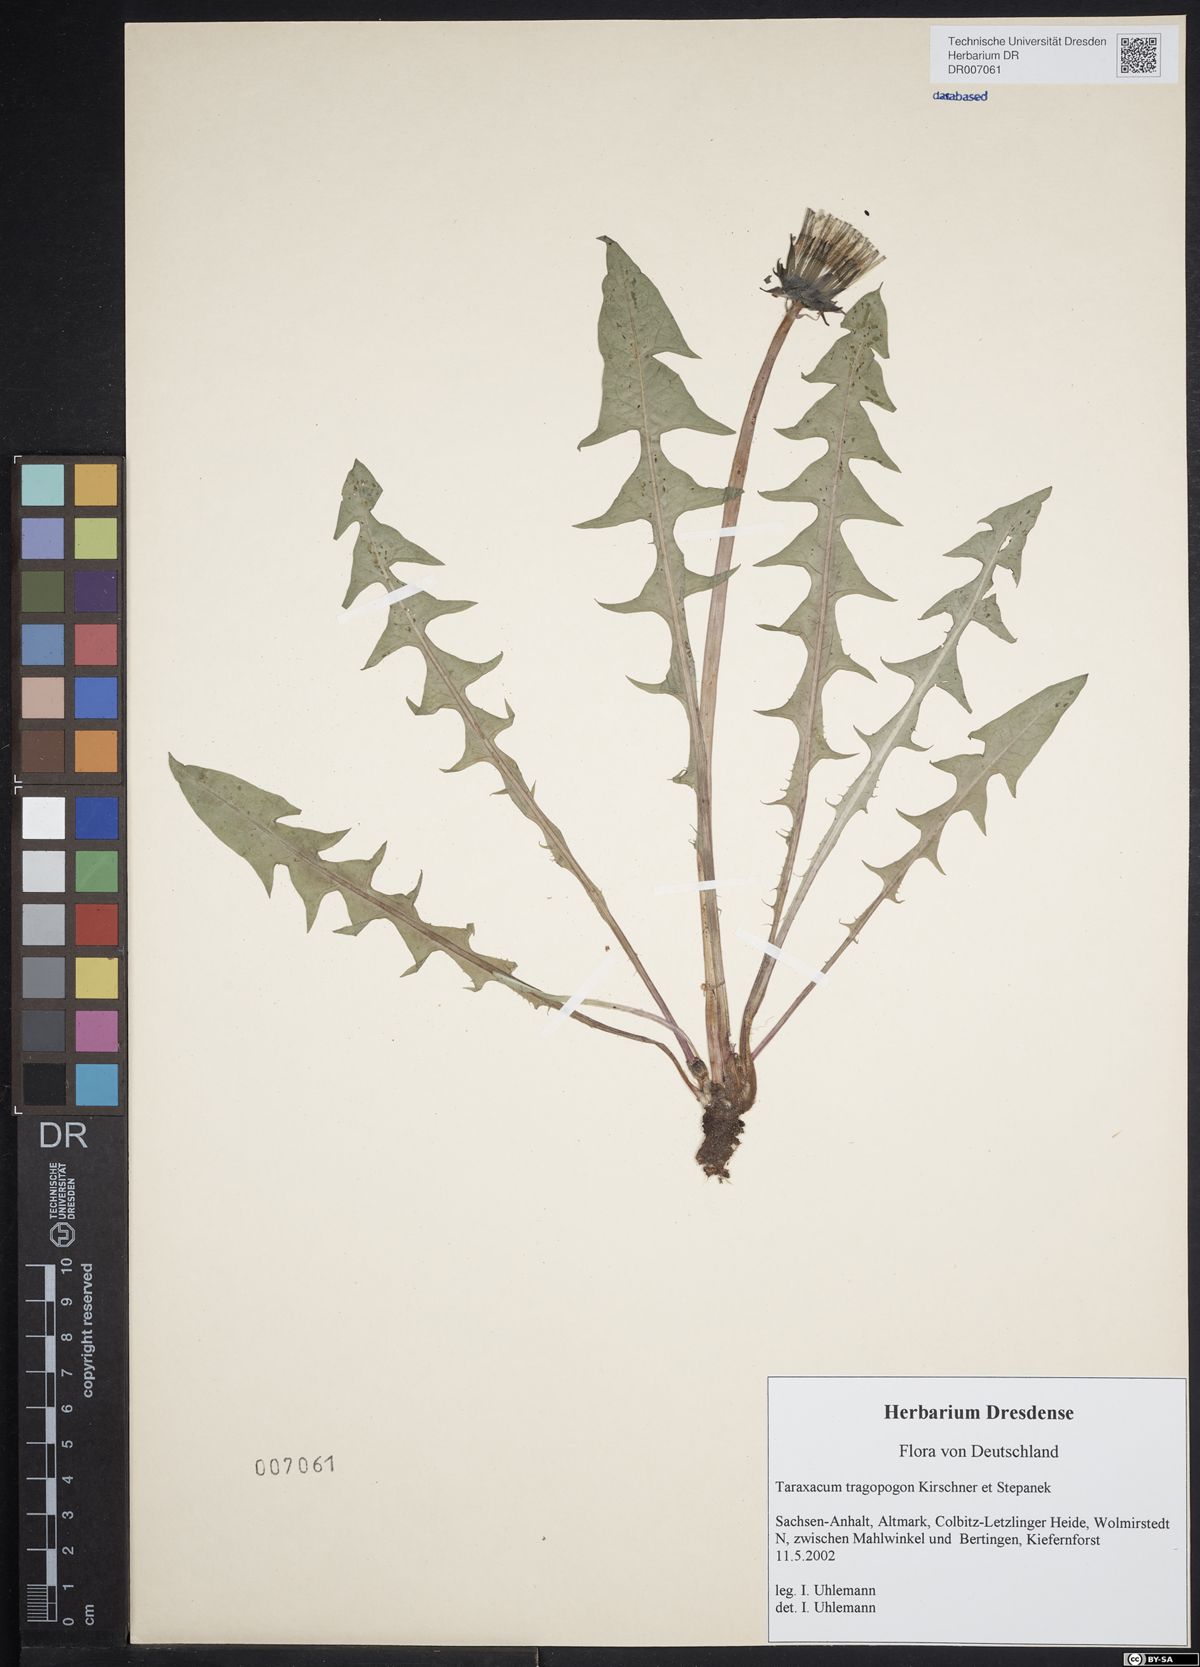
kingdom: Plantae
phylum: Tracheophyta
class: Magnoliopsida
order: Asterales
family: Asteraceae
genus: Taraxacum
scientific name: Taraxacum porrigentilobatum
